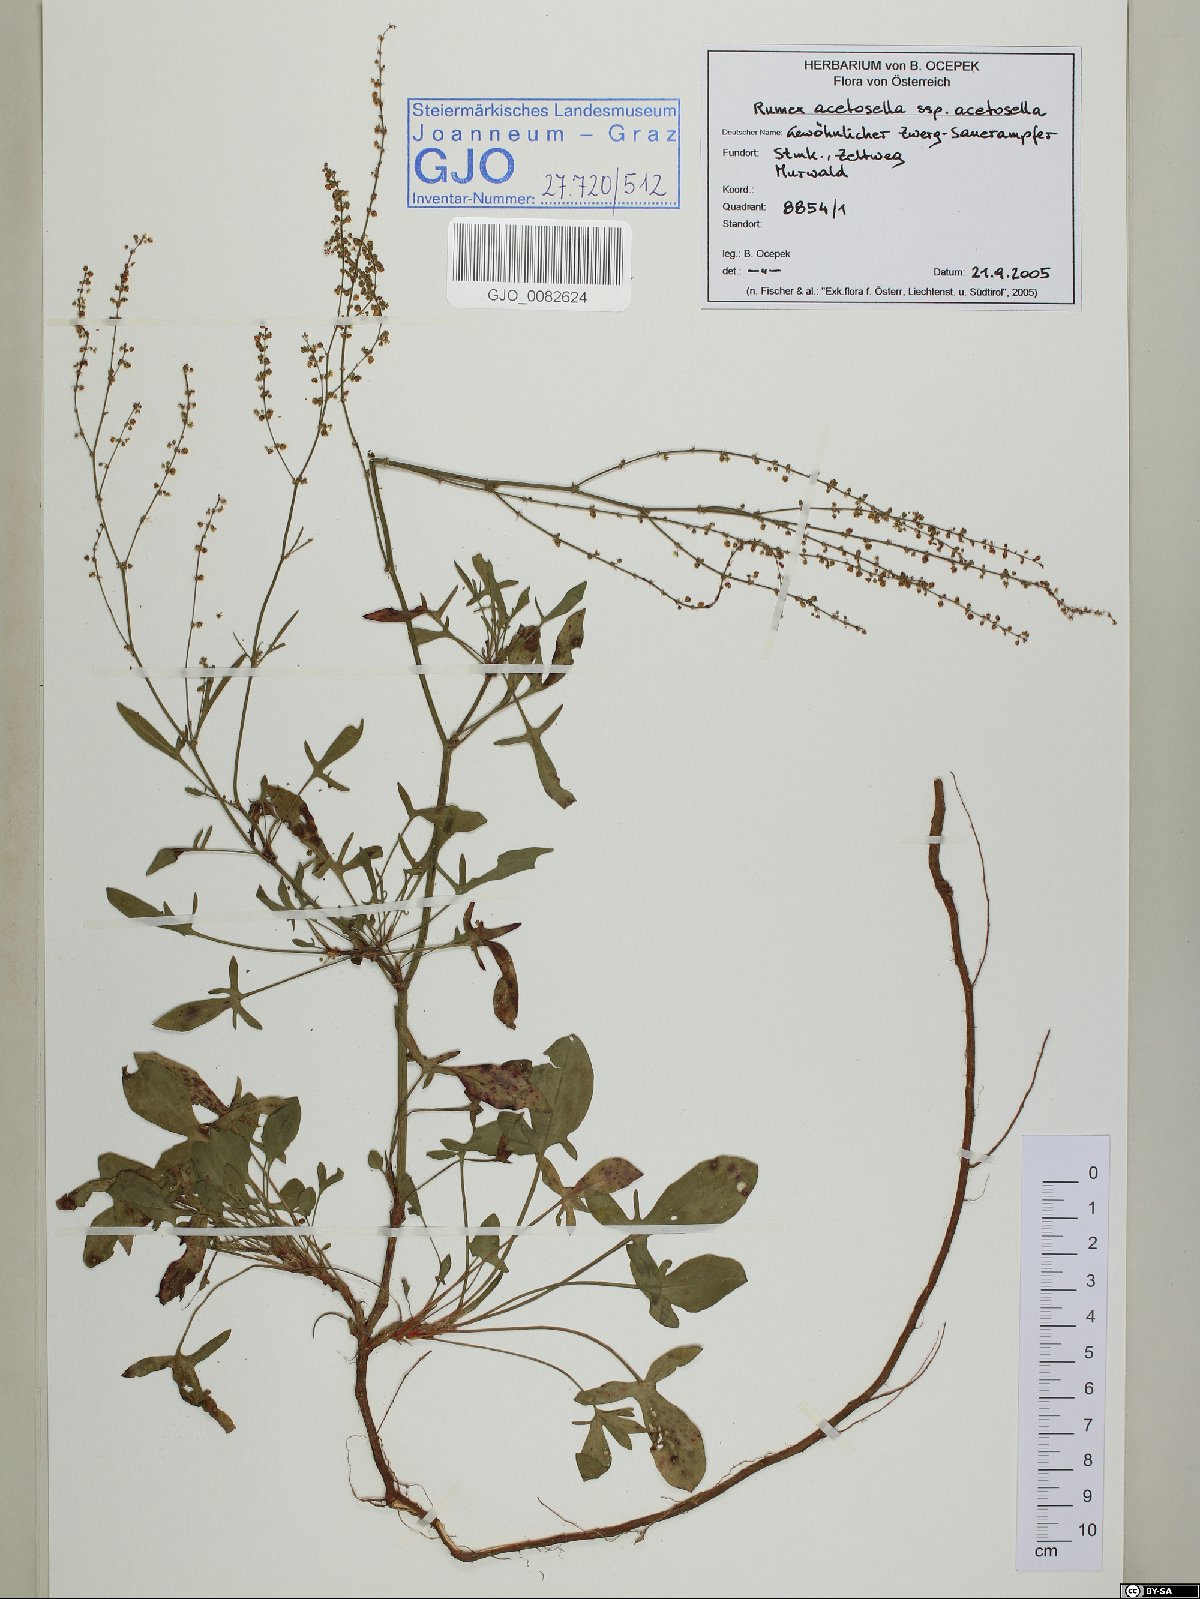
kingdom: Plantae
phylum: Tracheophyta
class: Magnoliopsida
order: Caryophyllales
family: Polygonaceae
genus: Rumex
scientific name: Rumex acetosella
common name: Common sheep sorrel
